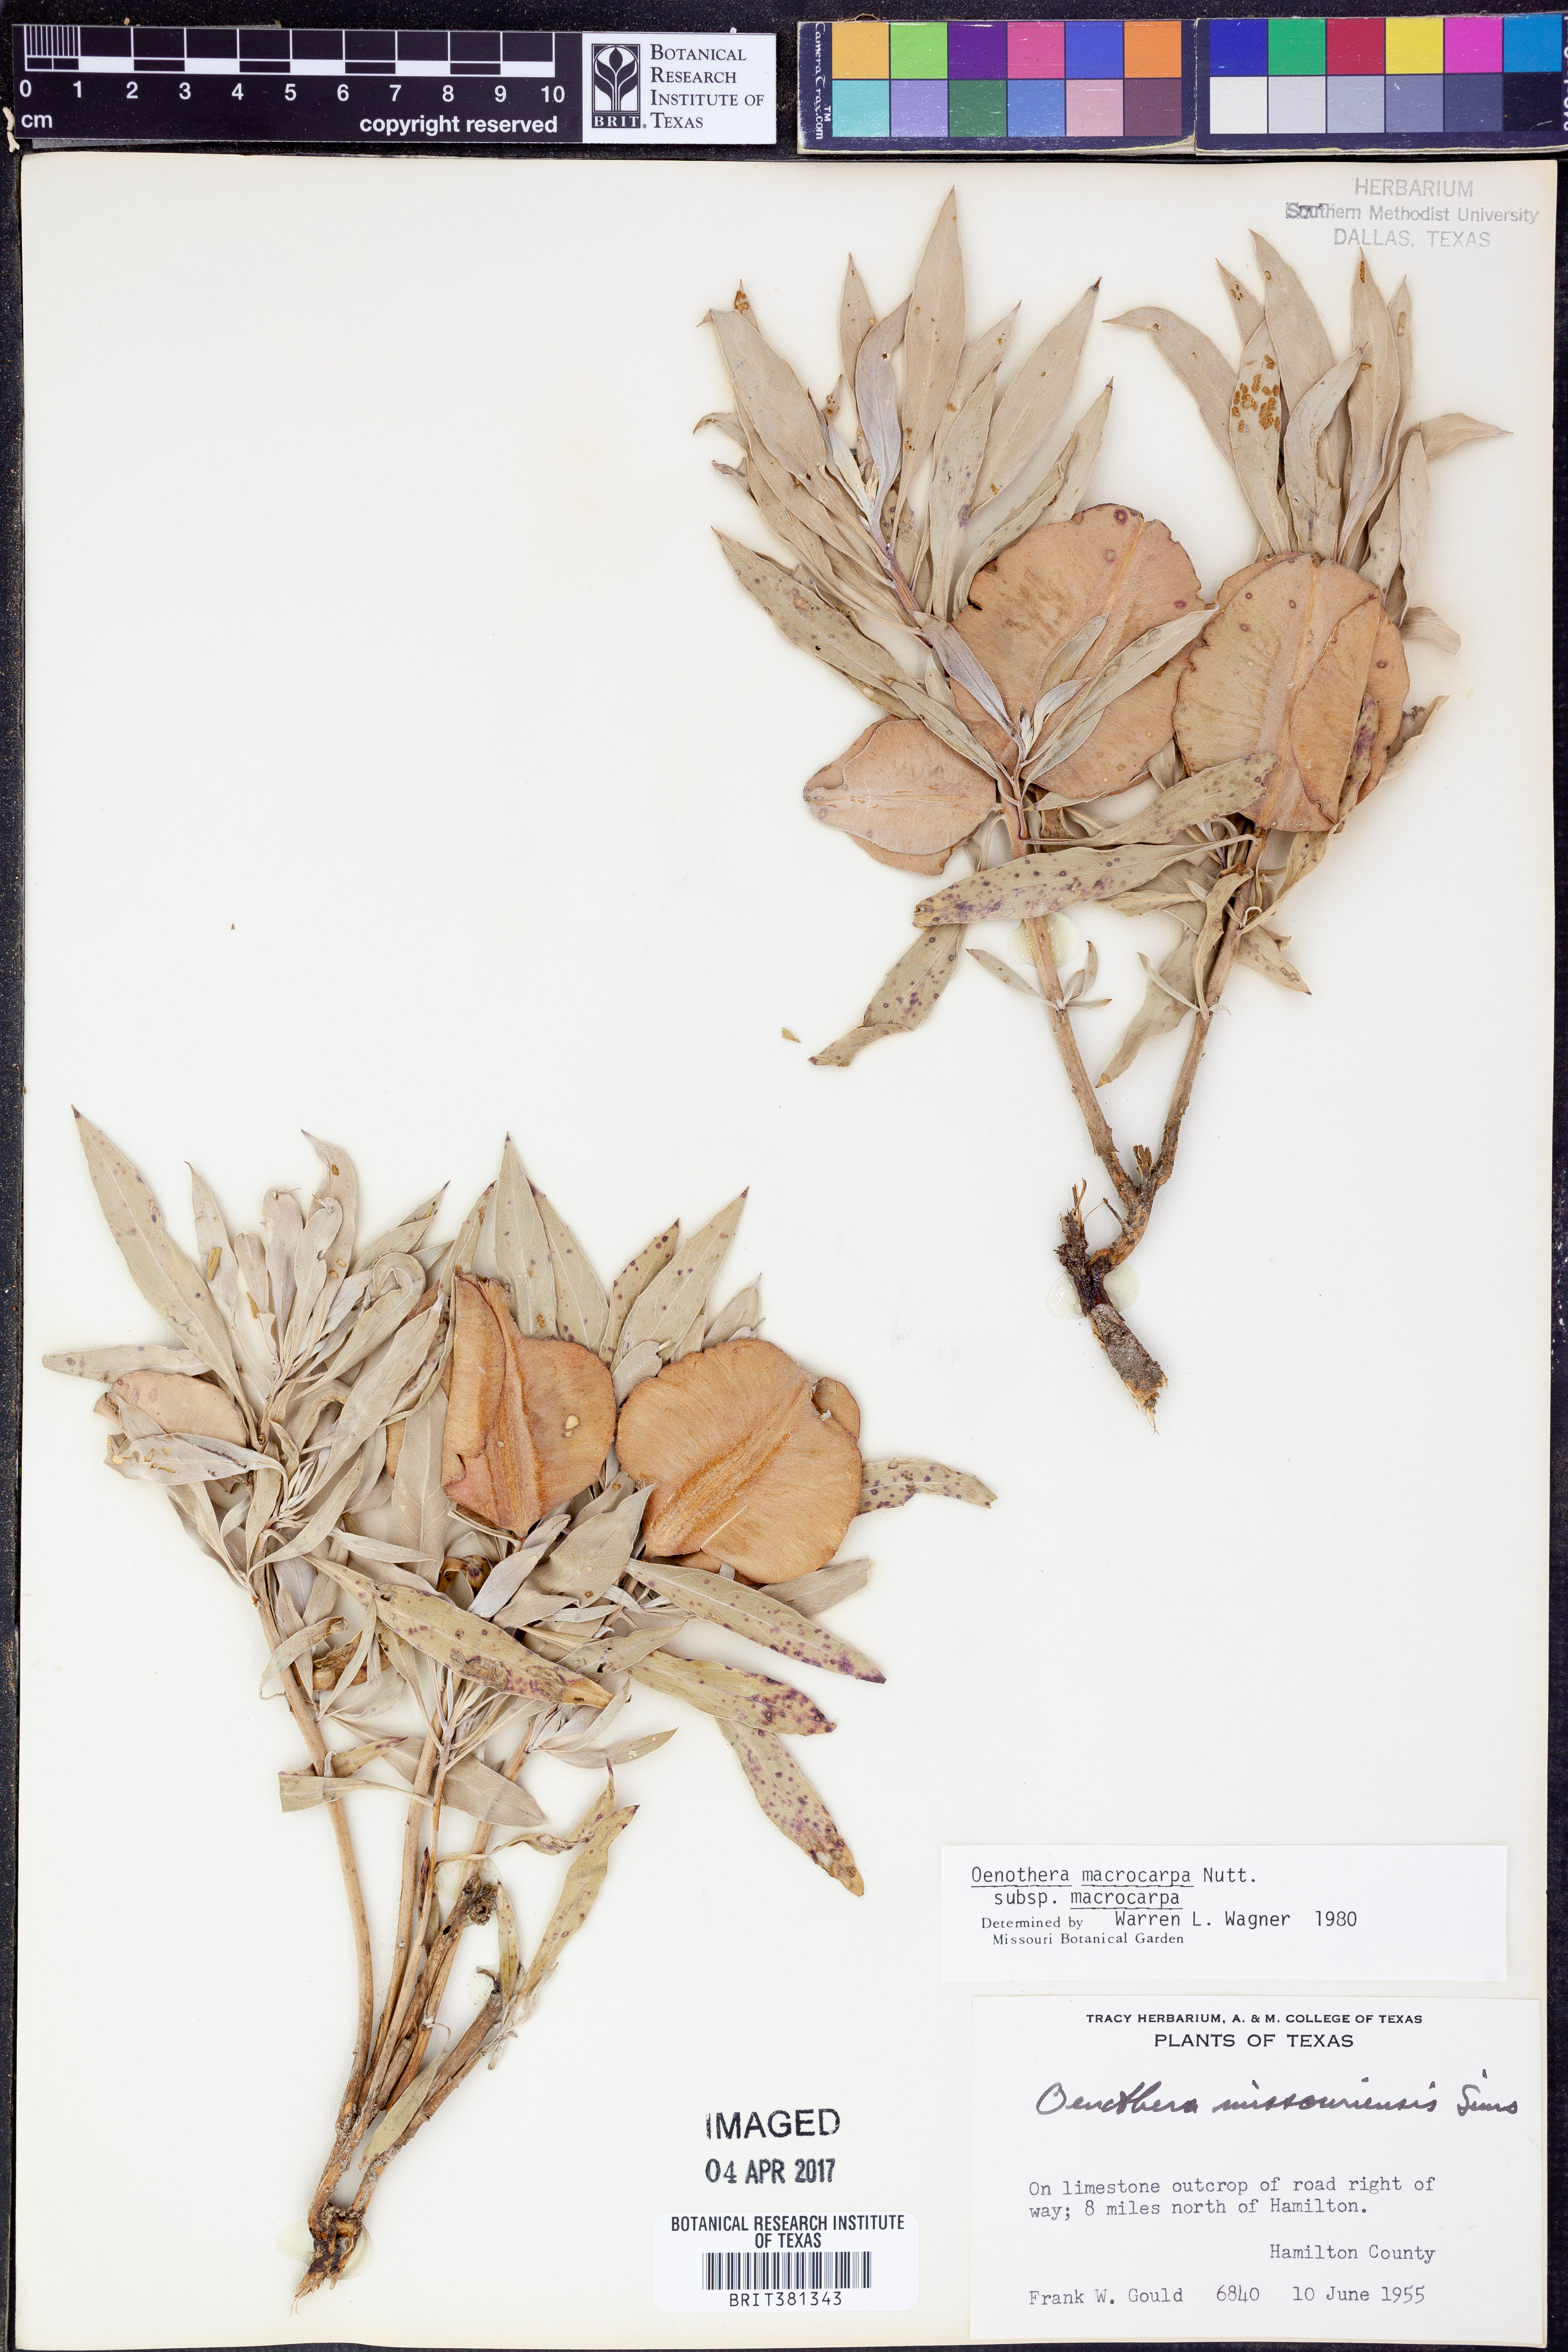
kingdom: Plantae
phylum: Tracheophyta
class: Magnoliopsida
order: Myrtales
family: Onagraceae
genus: Oenothera
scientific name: Oenothera macrocarpa
